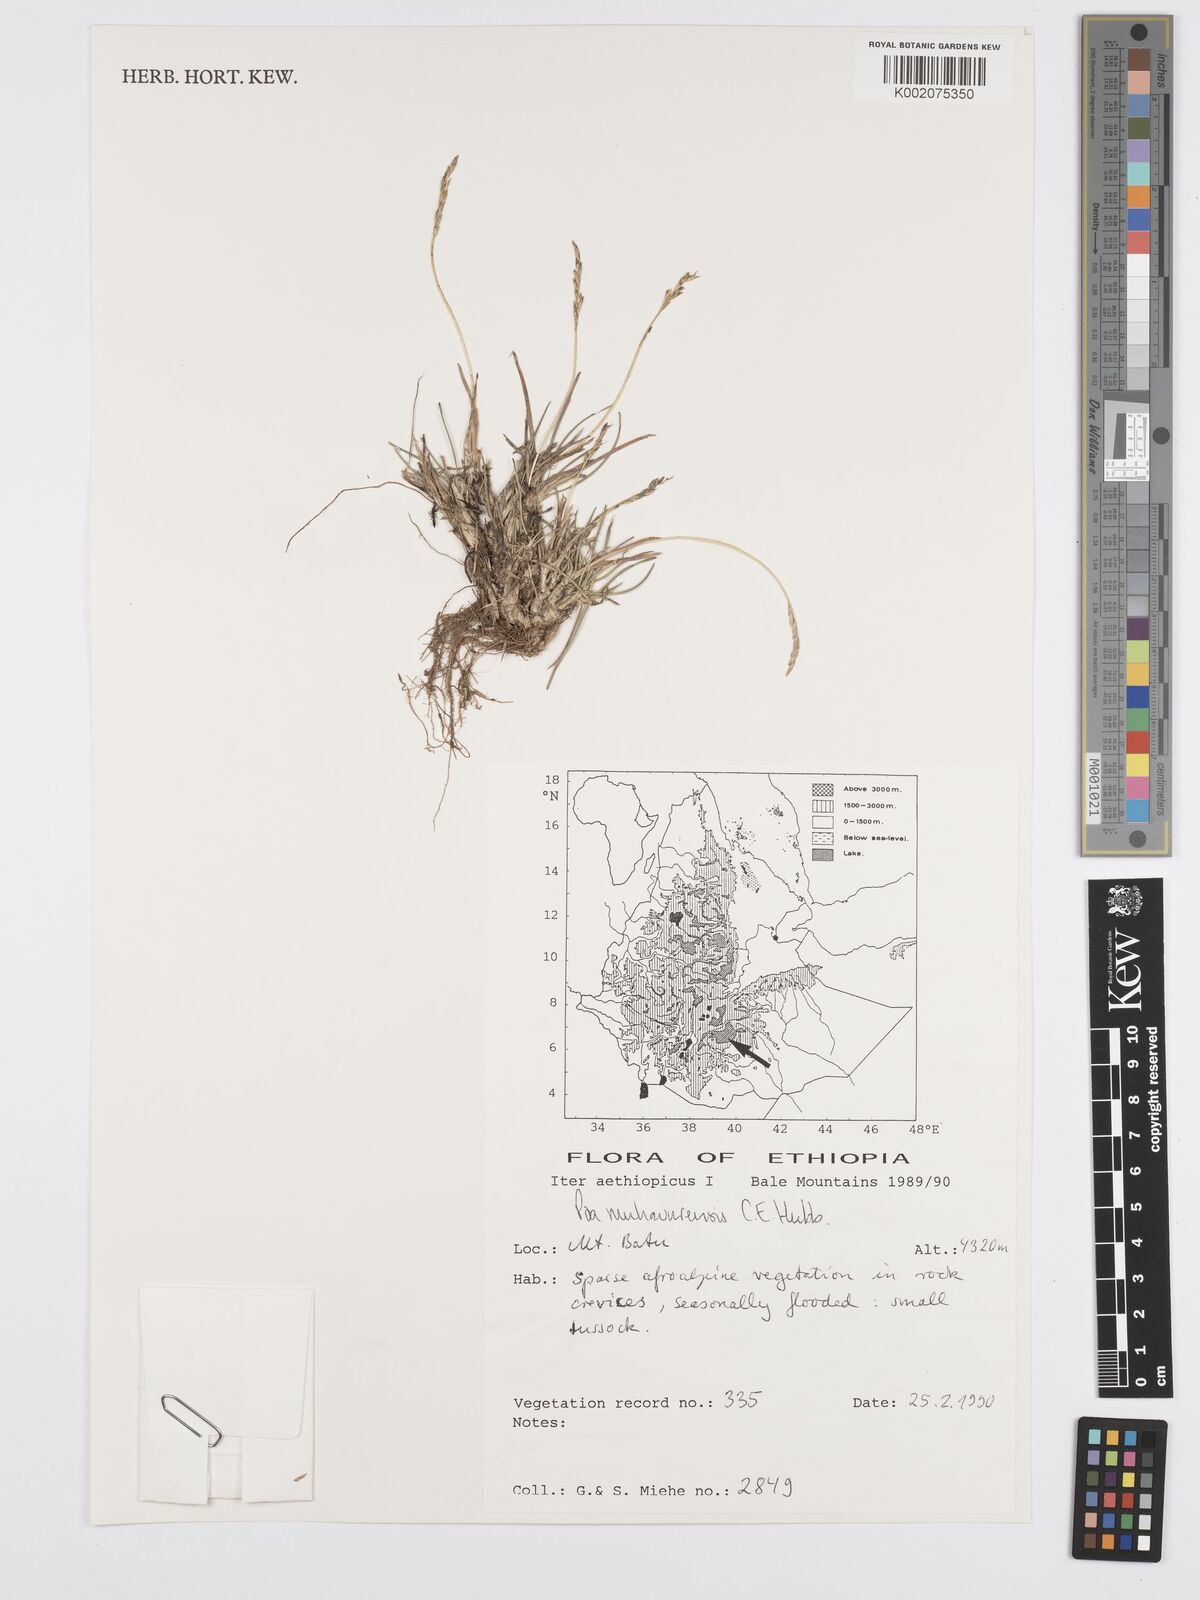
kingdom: Plantae
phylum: Tracheophyta
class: Liliopsida
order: Poales
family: Poaceae
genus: Poa
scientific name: Poa schimperiana
